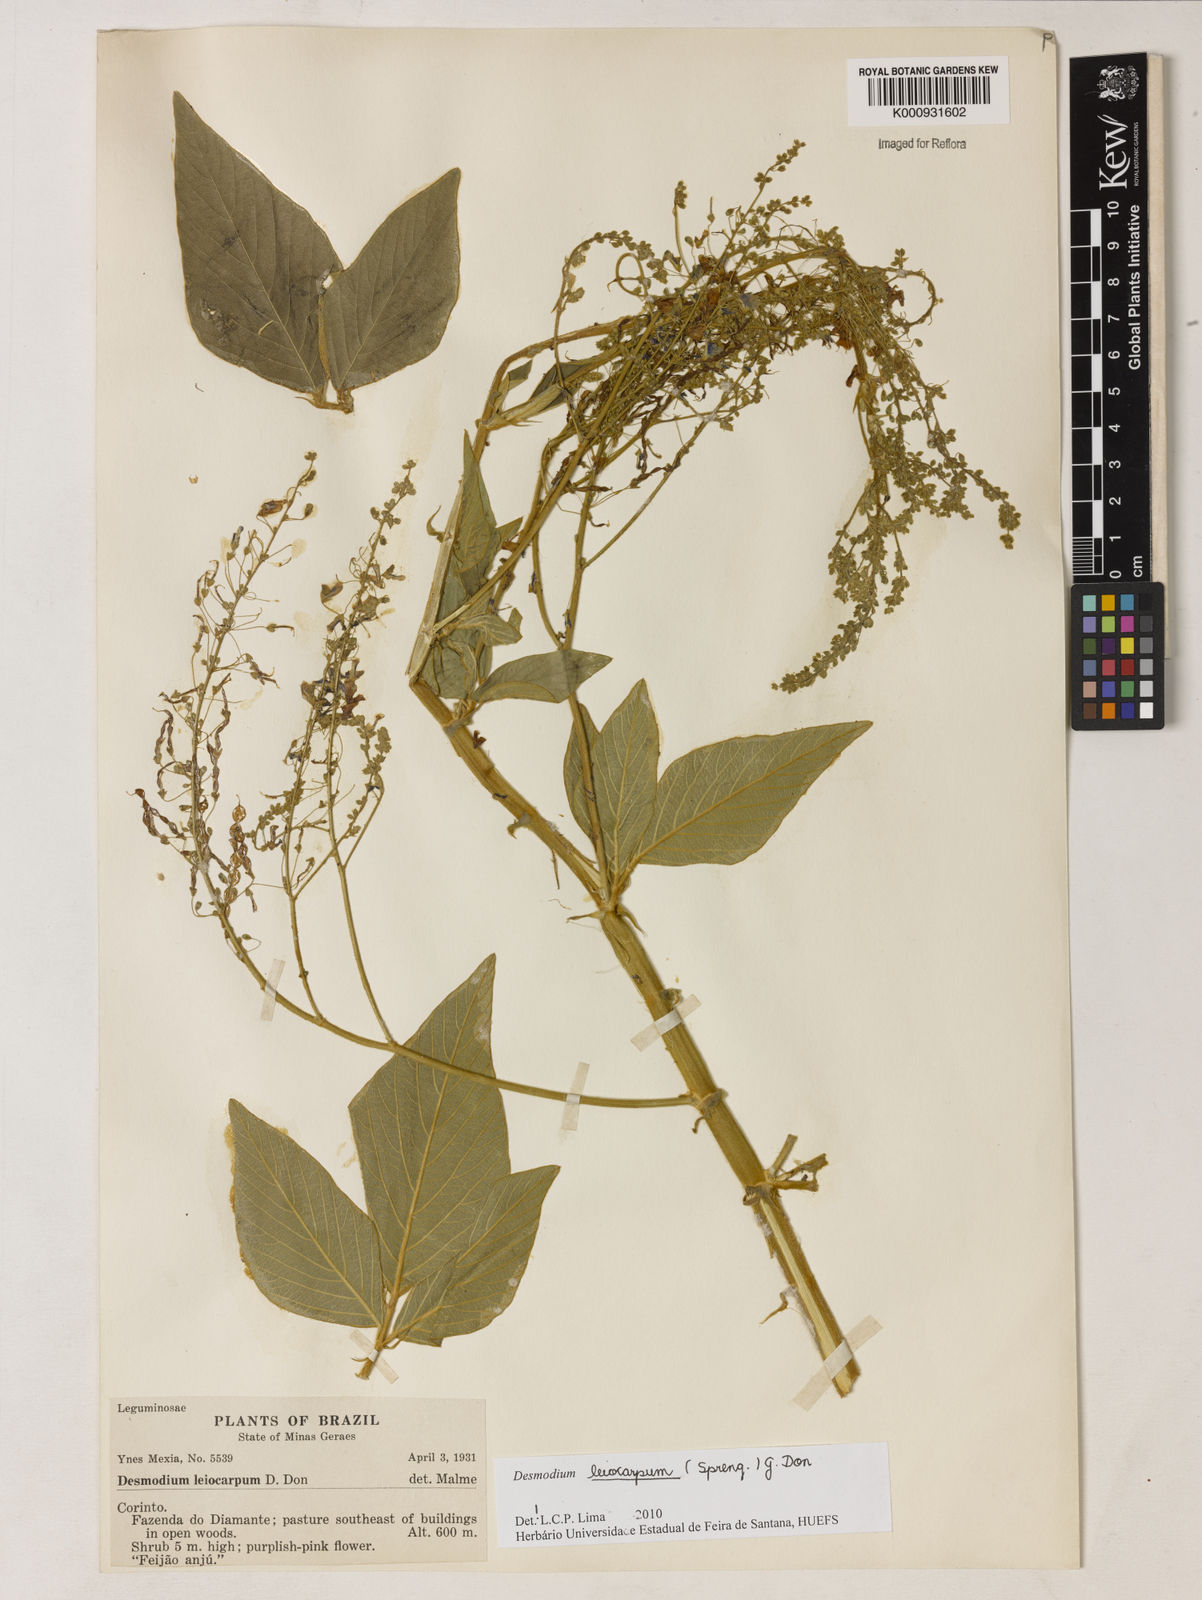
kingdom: Plantae
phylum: Tracheophyta
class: Magnoliopsida
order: Fabales
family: Fabaceae
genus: Desmodium
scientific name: Desmodium leiocarpum
